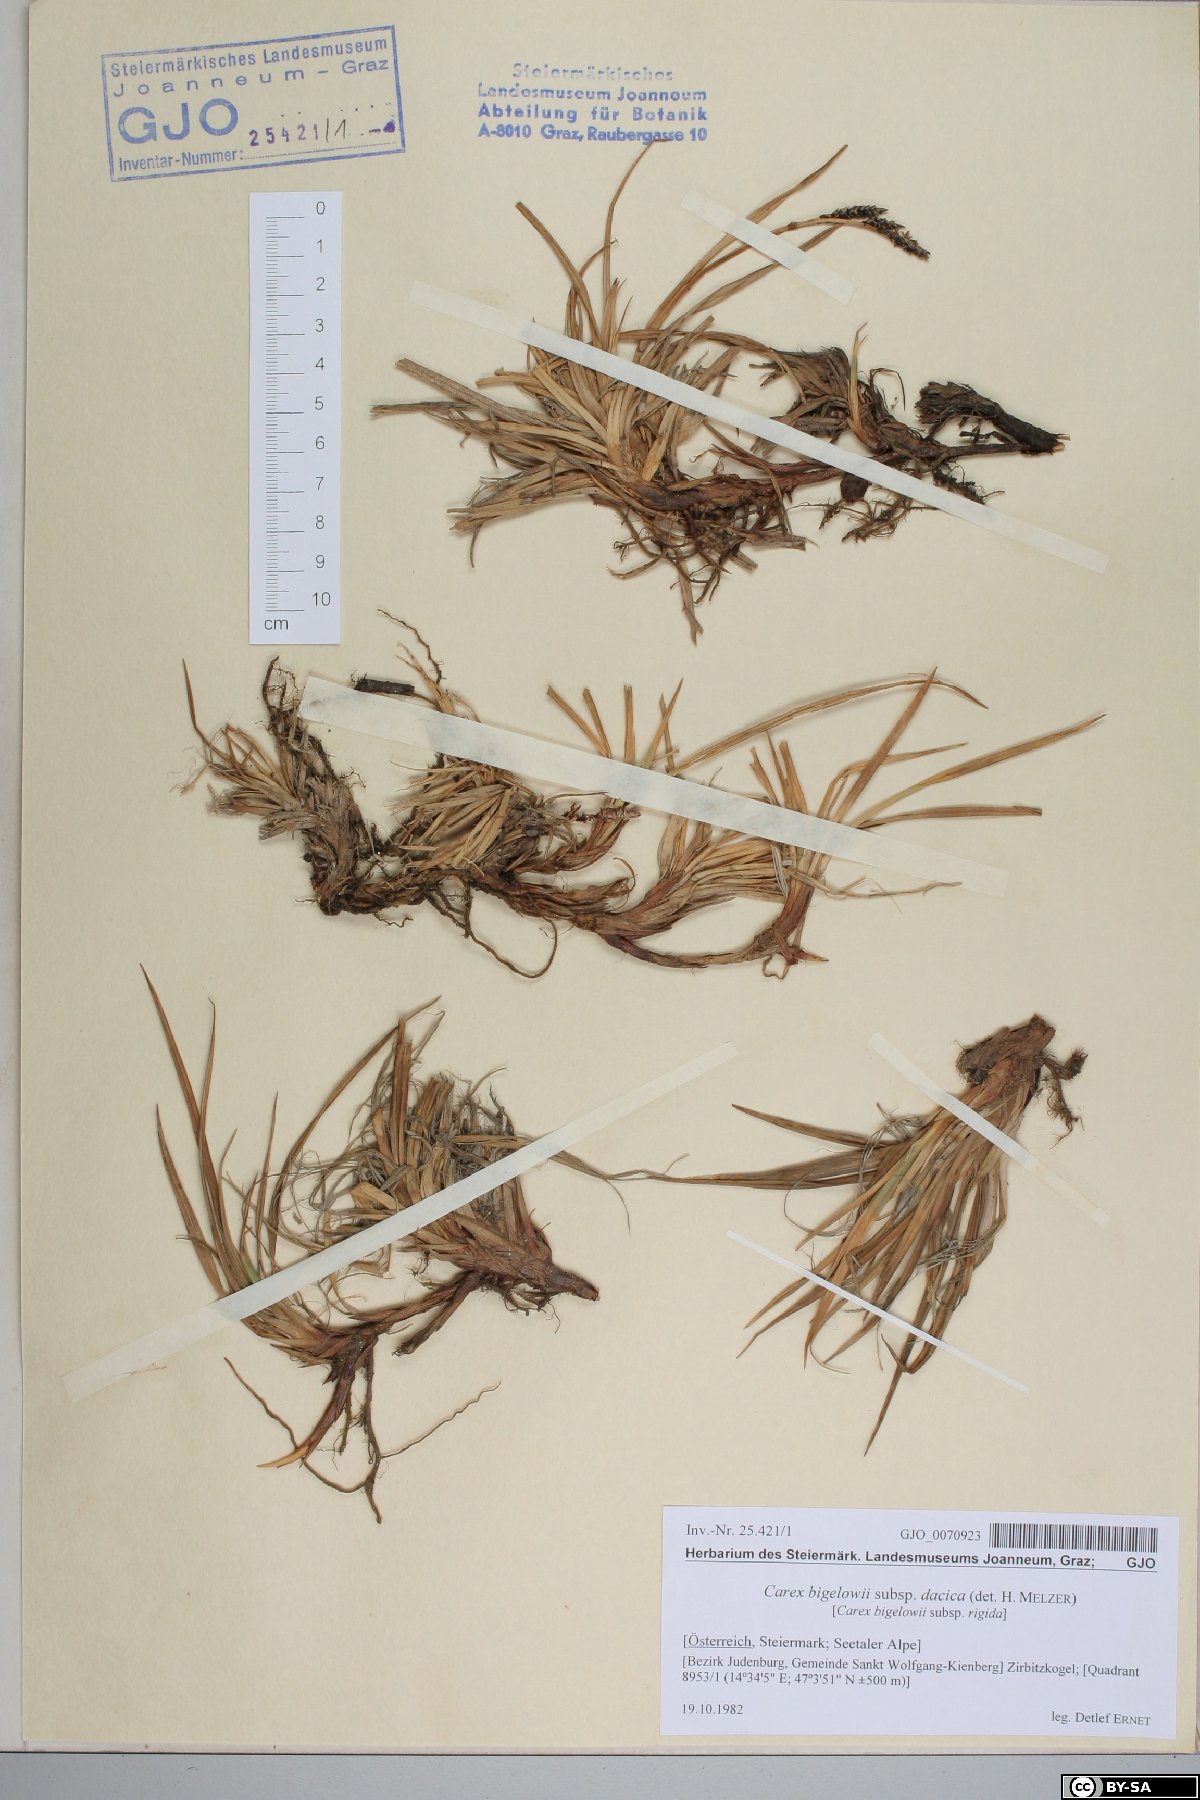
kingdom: Plantae
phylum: Tracheophyta
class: Liliopsida
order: Poales
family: Cyperaceae
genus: Carex
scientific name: Carex dacica
